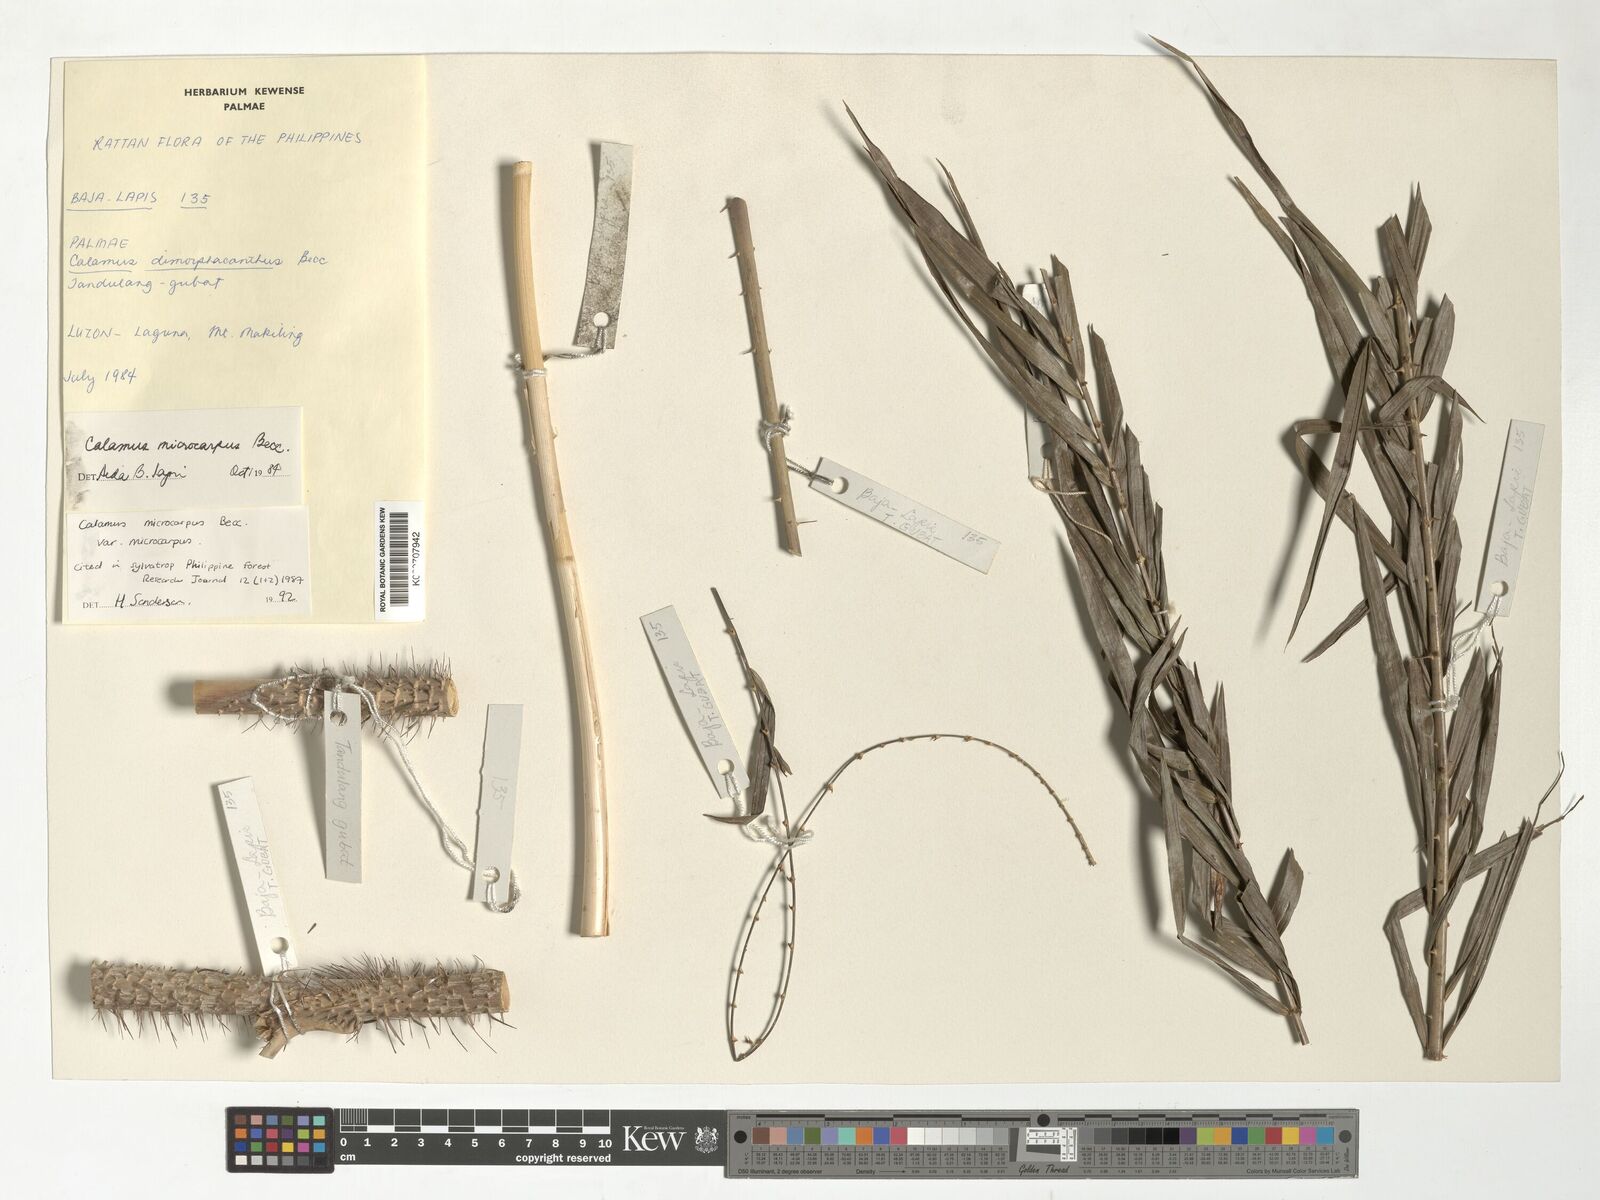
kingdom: Plantae
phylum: Tracheophyta
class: Liliopsida
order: Arecales
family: Arecaceae
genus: Calamus
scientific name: Calamus siphonospathus
